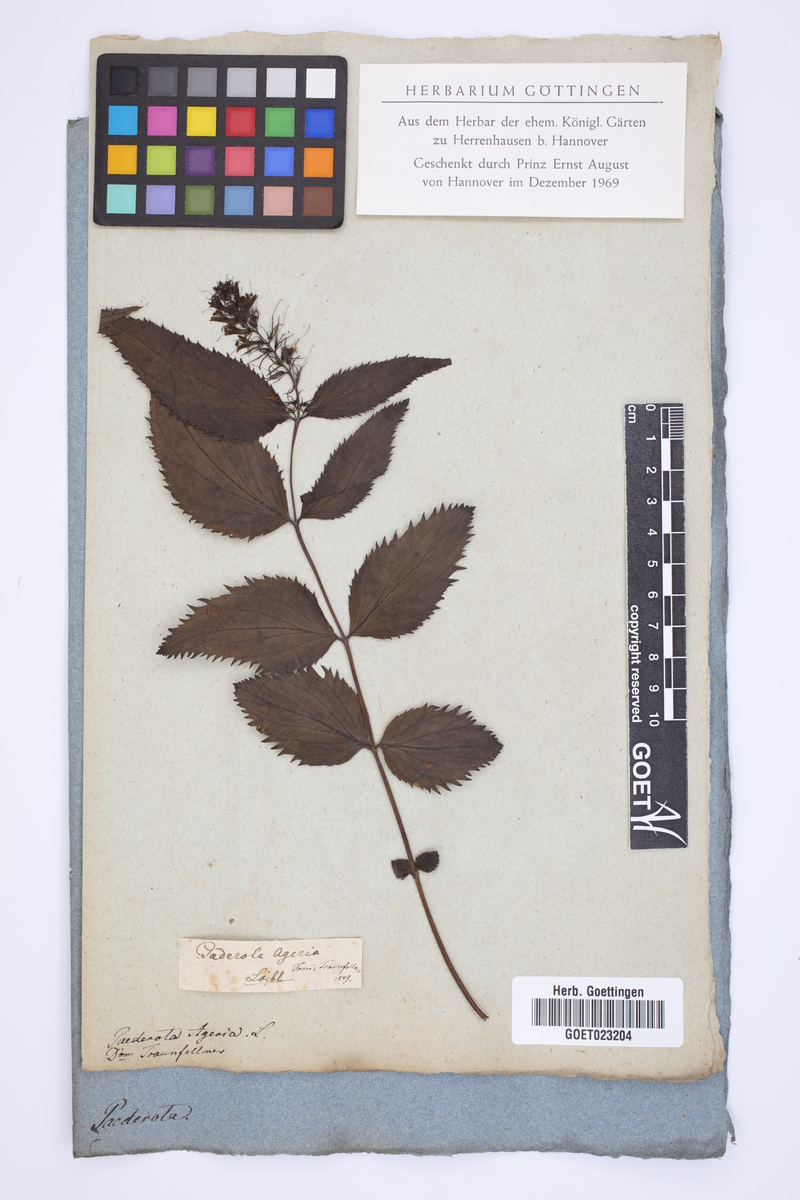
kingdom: Plantae
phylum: Tracheophyta
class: Magnoliopsida
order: Lamiales
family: Plantaginaceae
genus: Paederota
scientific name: Paederota lutea
